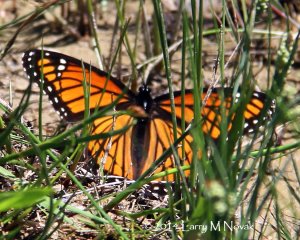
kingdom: Animalia
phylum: Arthropoda
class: Insecta
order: Lepidoptera
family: Nymphalidae
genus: Limenitis
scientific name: Limenitis archippus
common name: Viceroy
